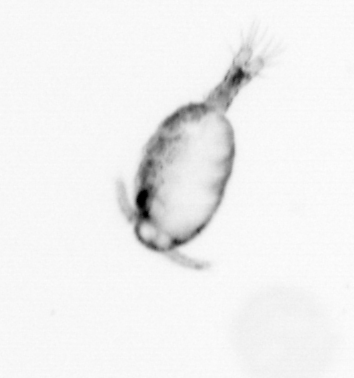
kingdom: Animalia
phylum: Arthropoda
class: Copepoda
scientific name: Copepoda
